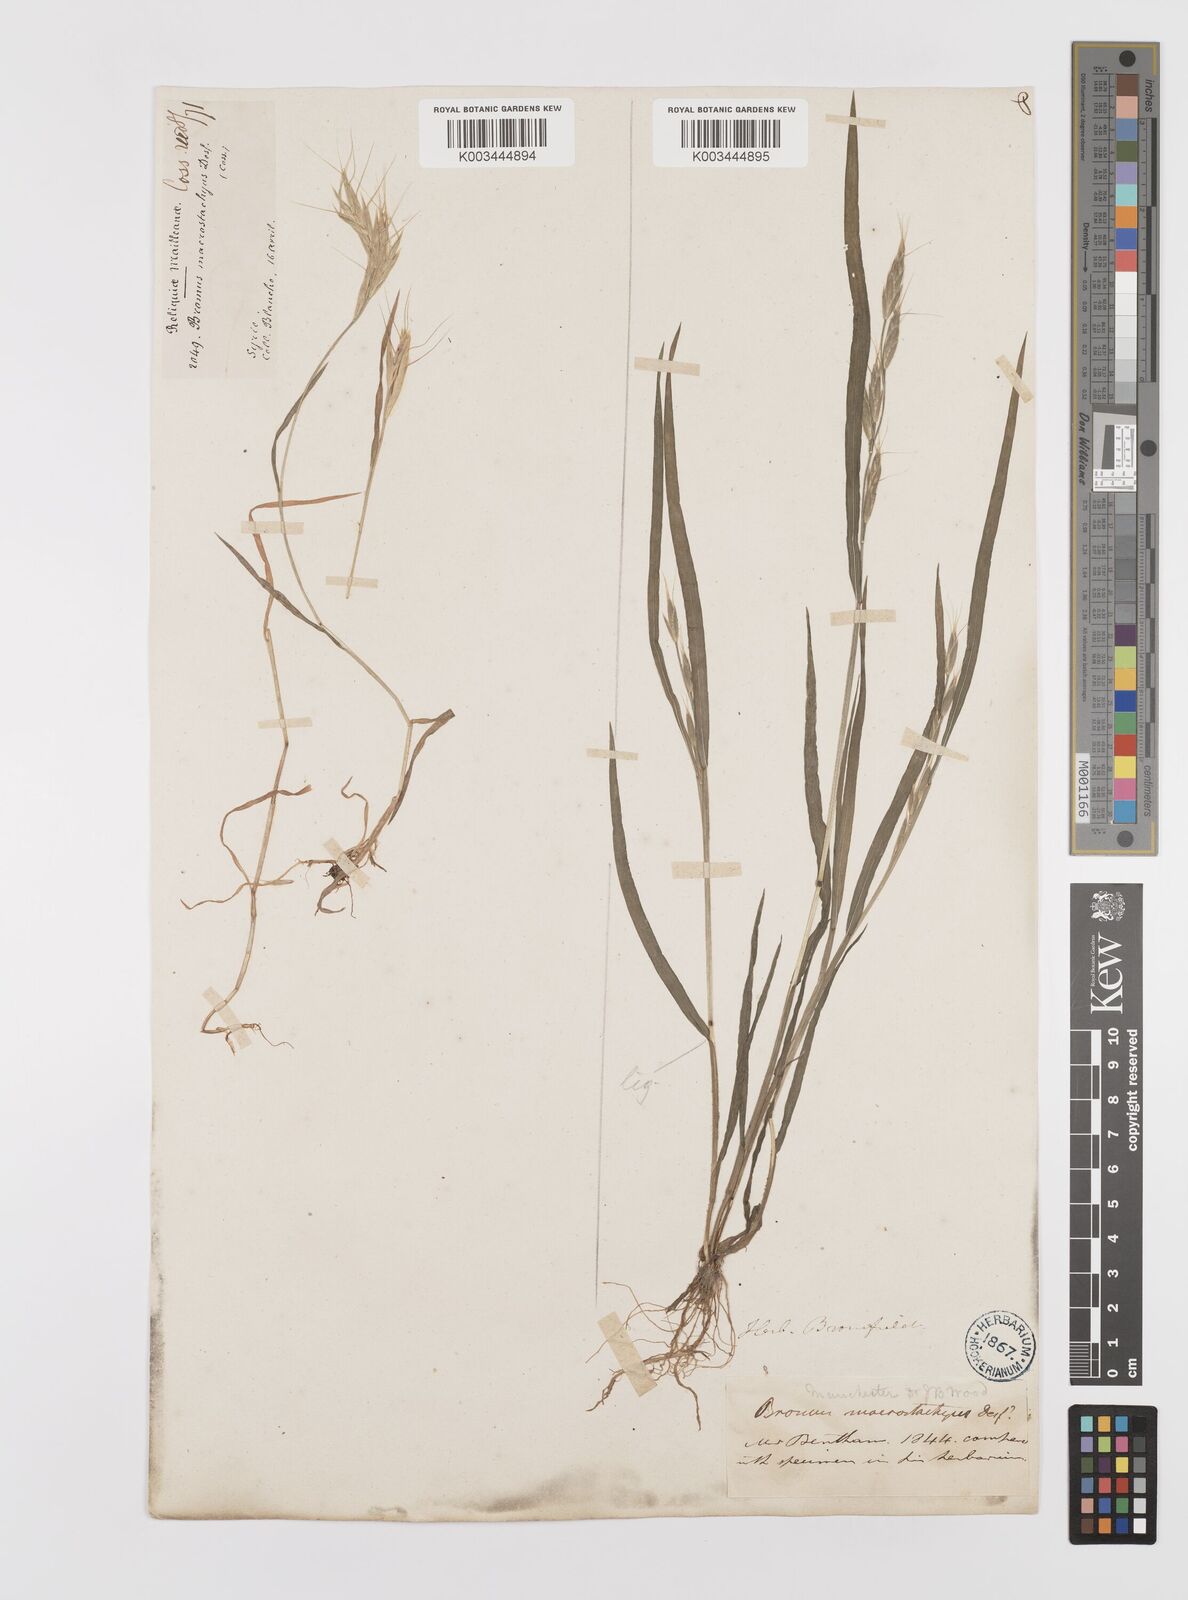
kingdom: Plantae
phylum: Tracheophyta
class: Liliopsida
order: Poales
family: Poaceae
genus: Bromus
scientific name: Bromus lanceolatus
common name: Mediterranean brome
